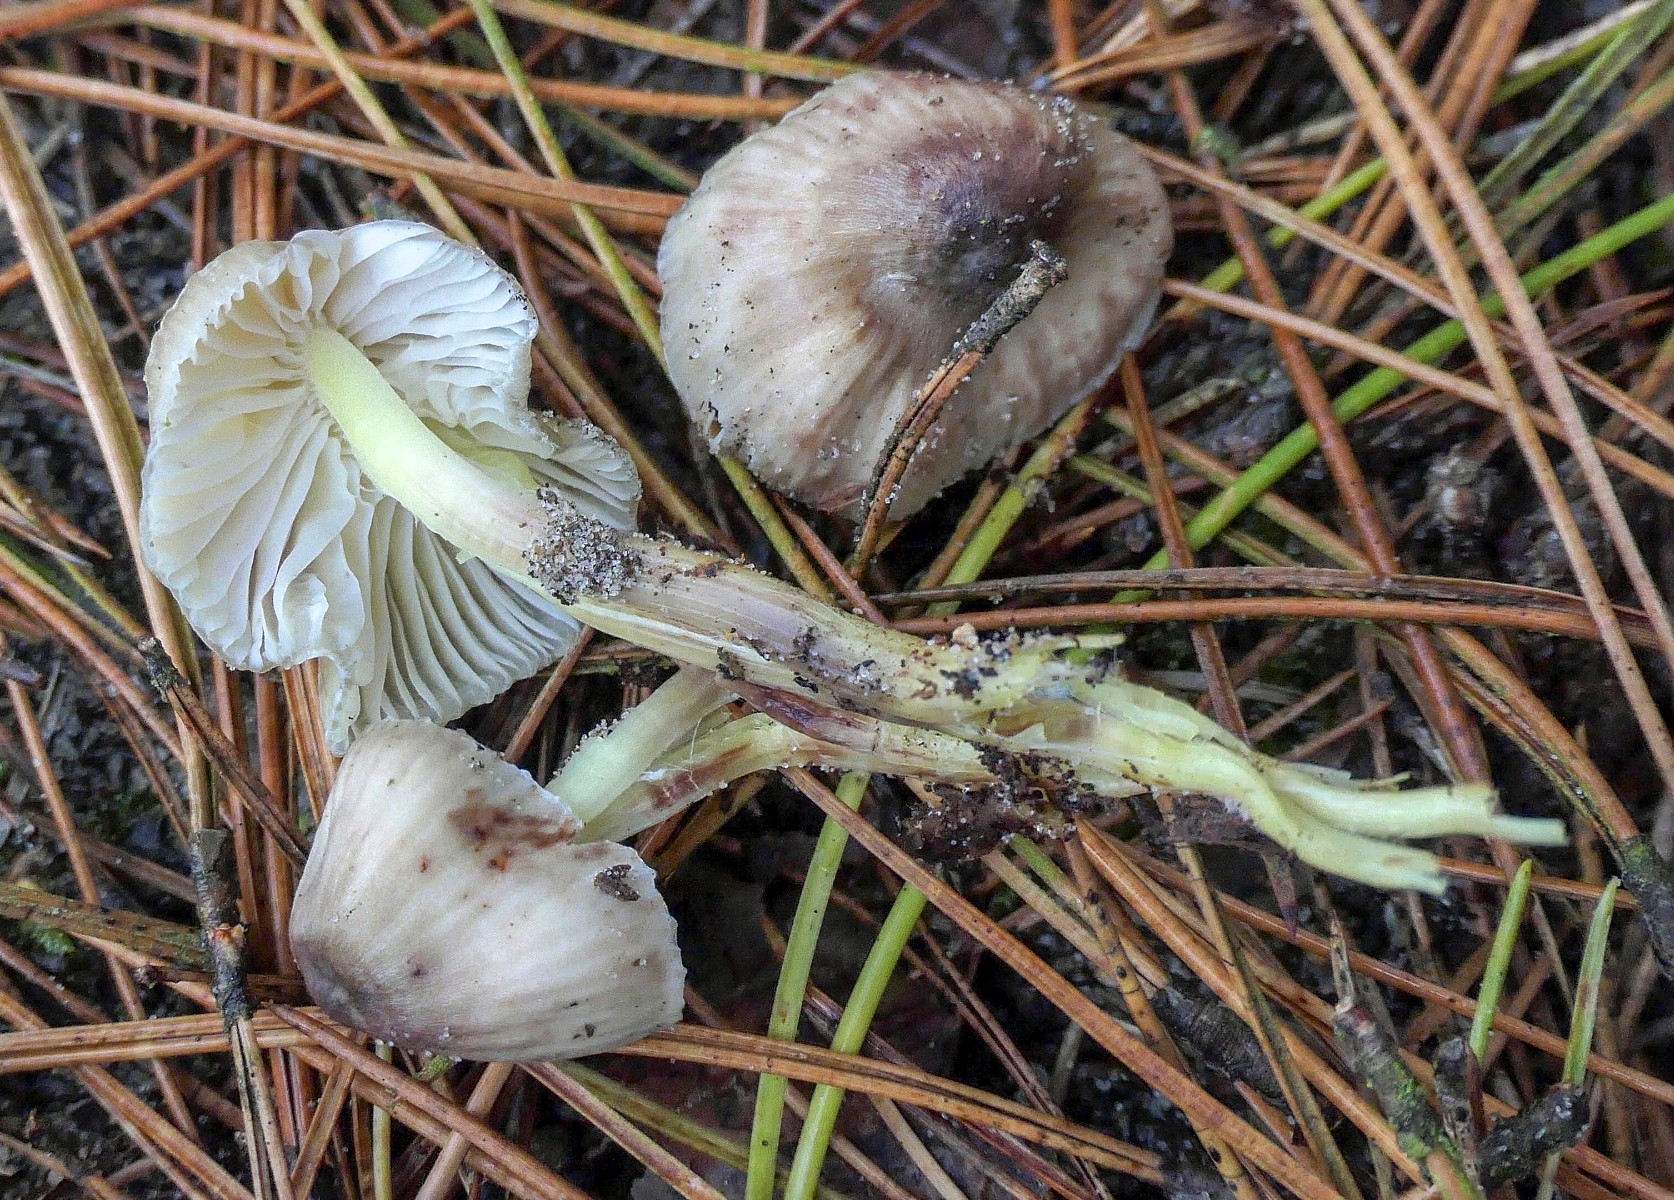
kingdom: Fungi
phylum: Basidiomycota
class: Agaricomycetes
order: Agaricales
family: Mycenaceae
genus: Mycena
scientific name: Mycena epipterygia
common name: gulstokket huesvamp
